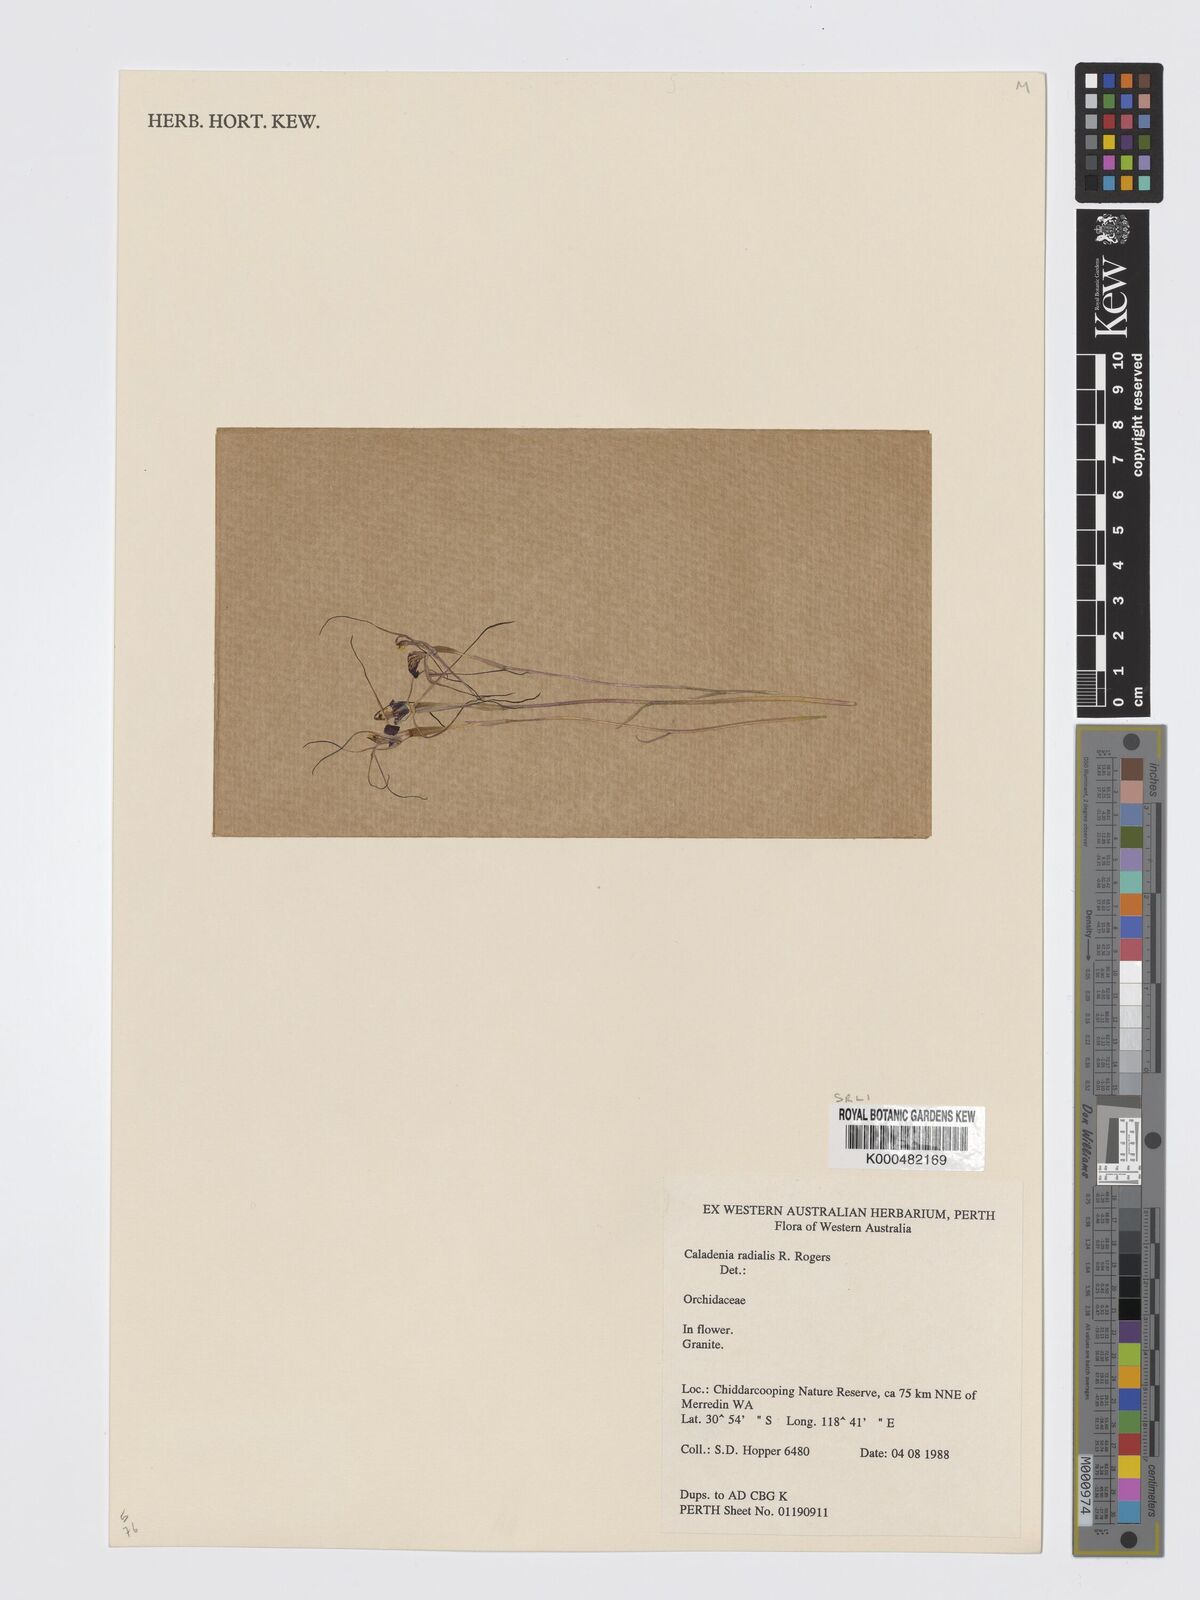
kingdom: Plantae
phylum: Tracheophyta
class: Liliopsida
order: Asparagales
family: Orchidaceae
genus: Caladenia
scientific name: Caladenia
